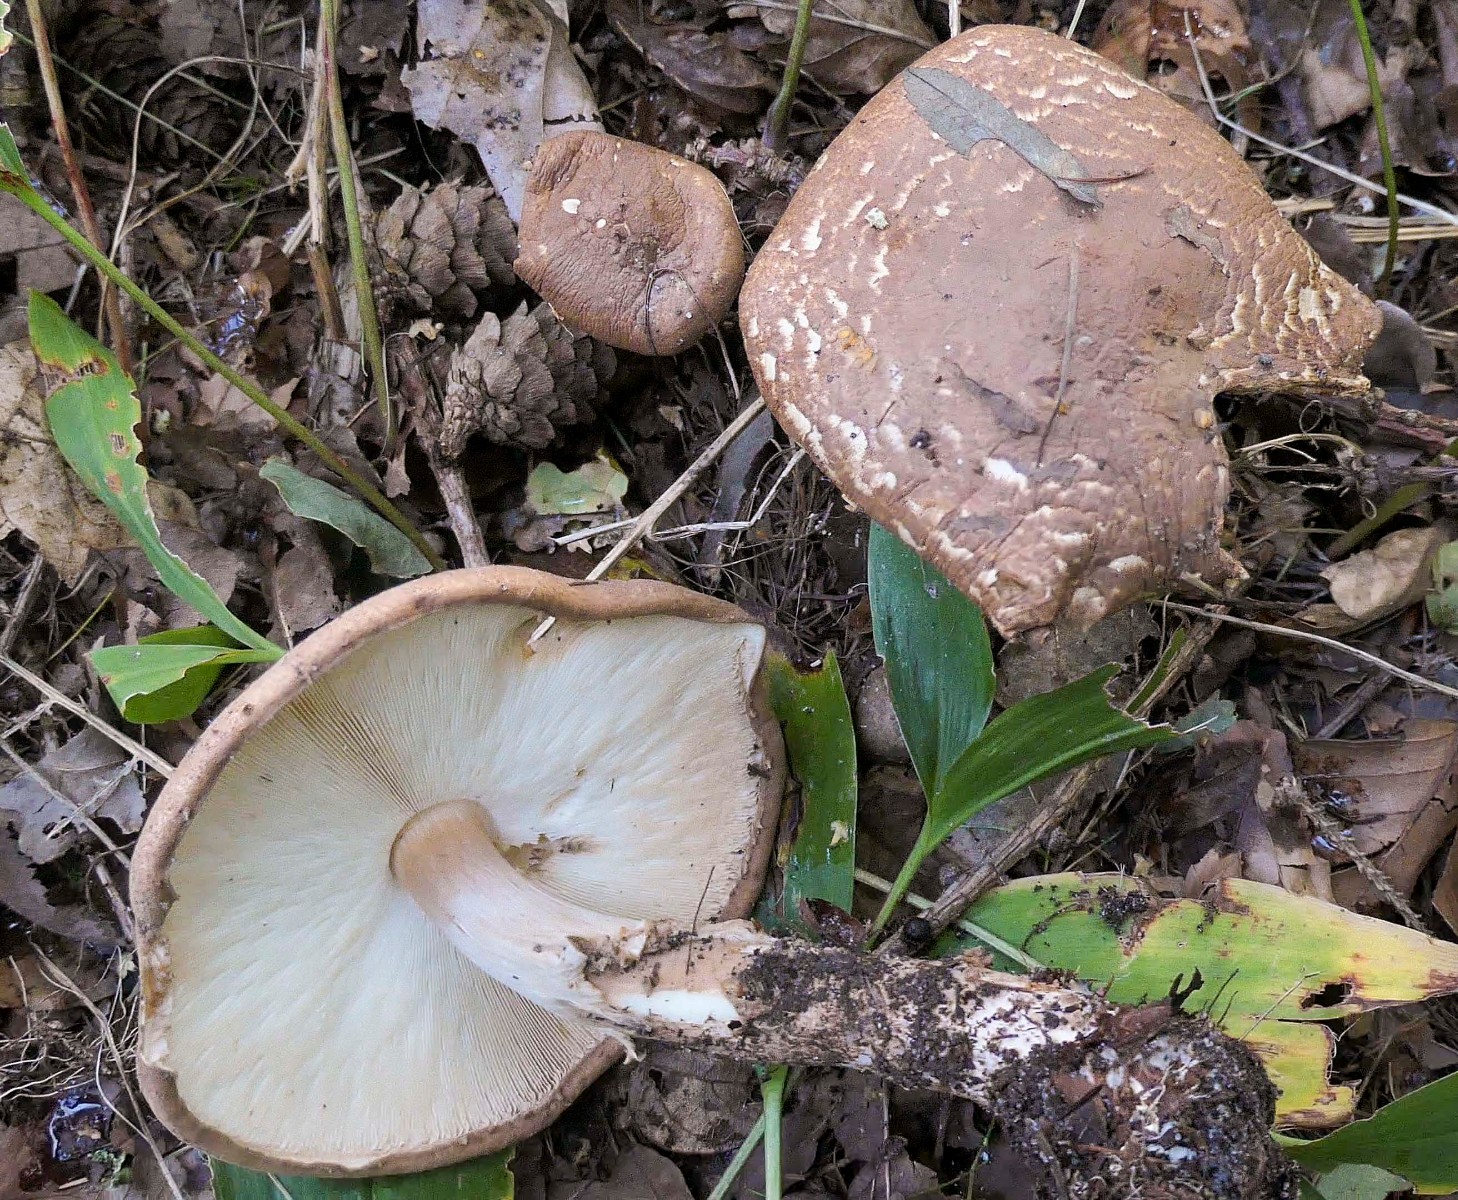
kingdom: Fungi
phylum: Basidiomycota
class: Agaricomycetes
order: Agaricales
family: Agaricaceae
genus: Echinoderma
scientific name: Echinoderma asperum
